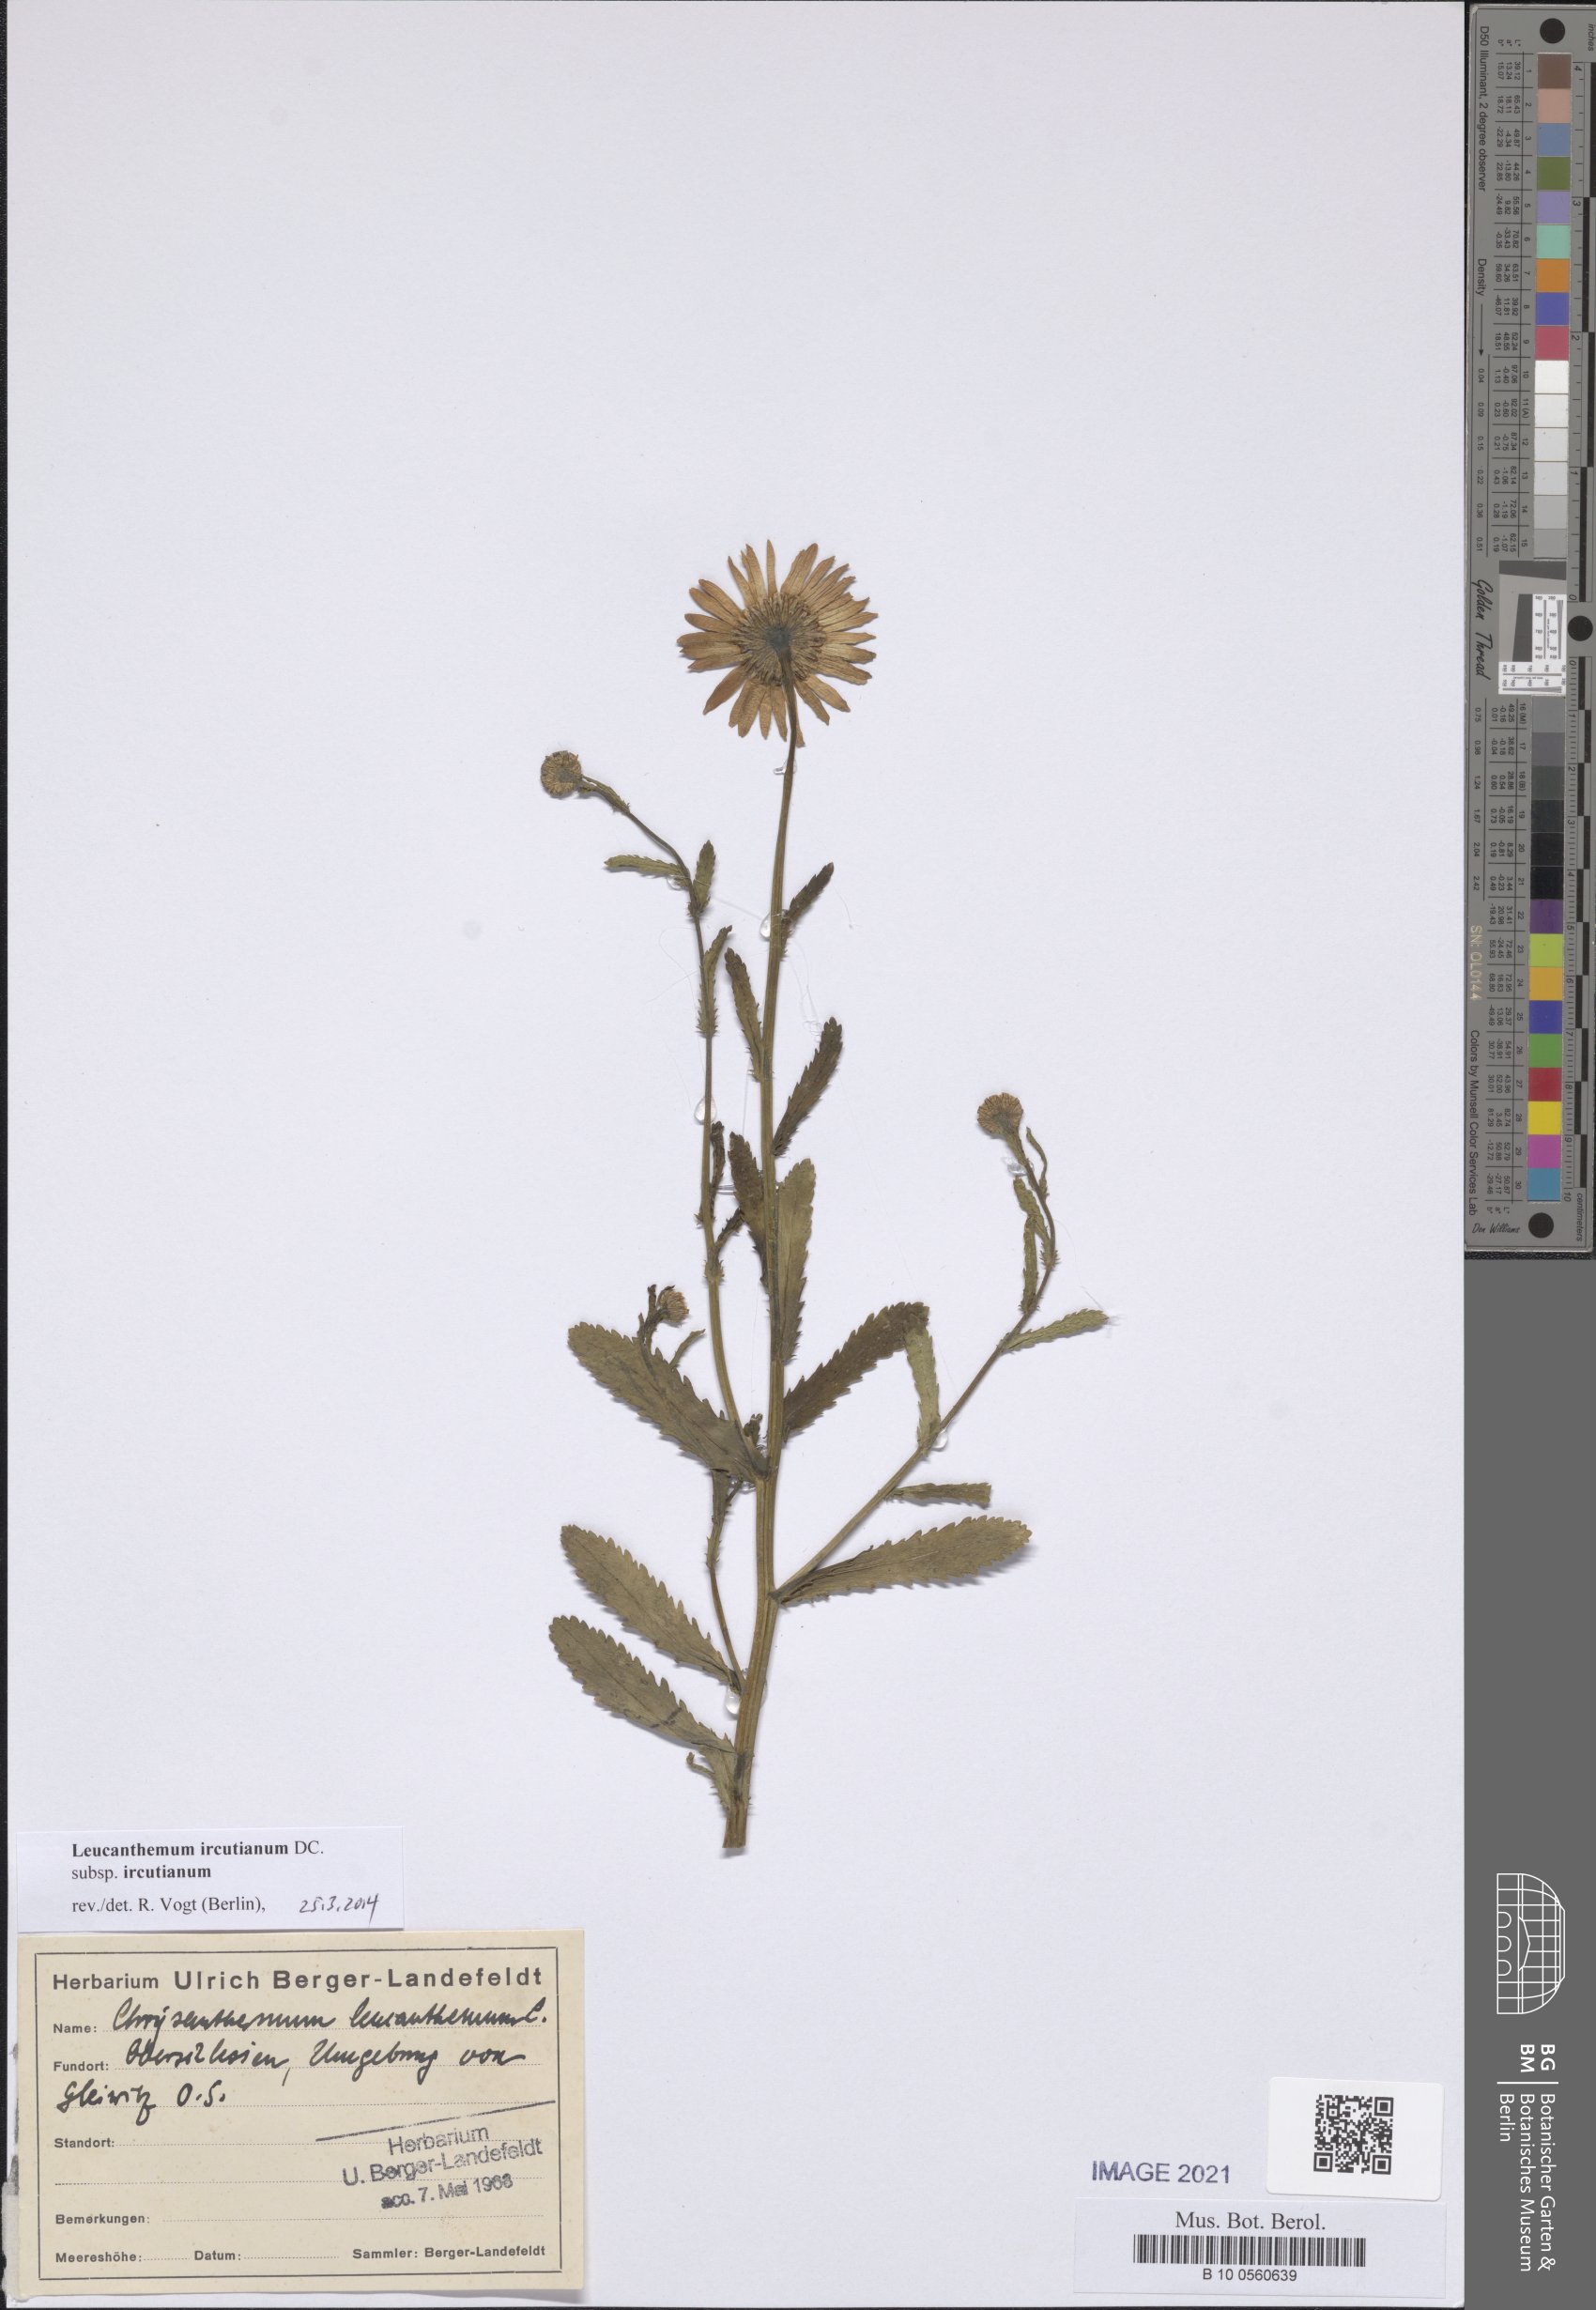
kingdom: Plantae
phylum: Tracheophyta
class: Magnoliopsida
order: Asterales
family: Asteraceae
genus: Leucanthemum
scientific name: Leucanthemum ircutianum
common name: Daisy
